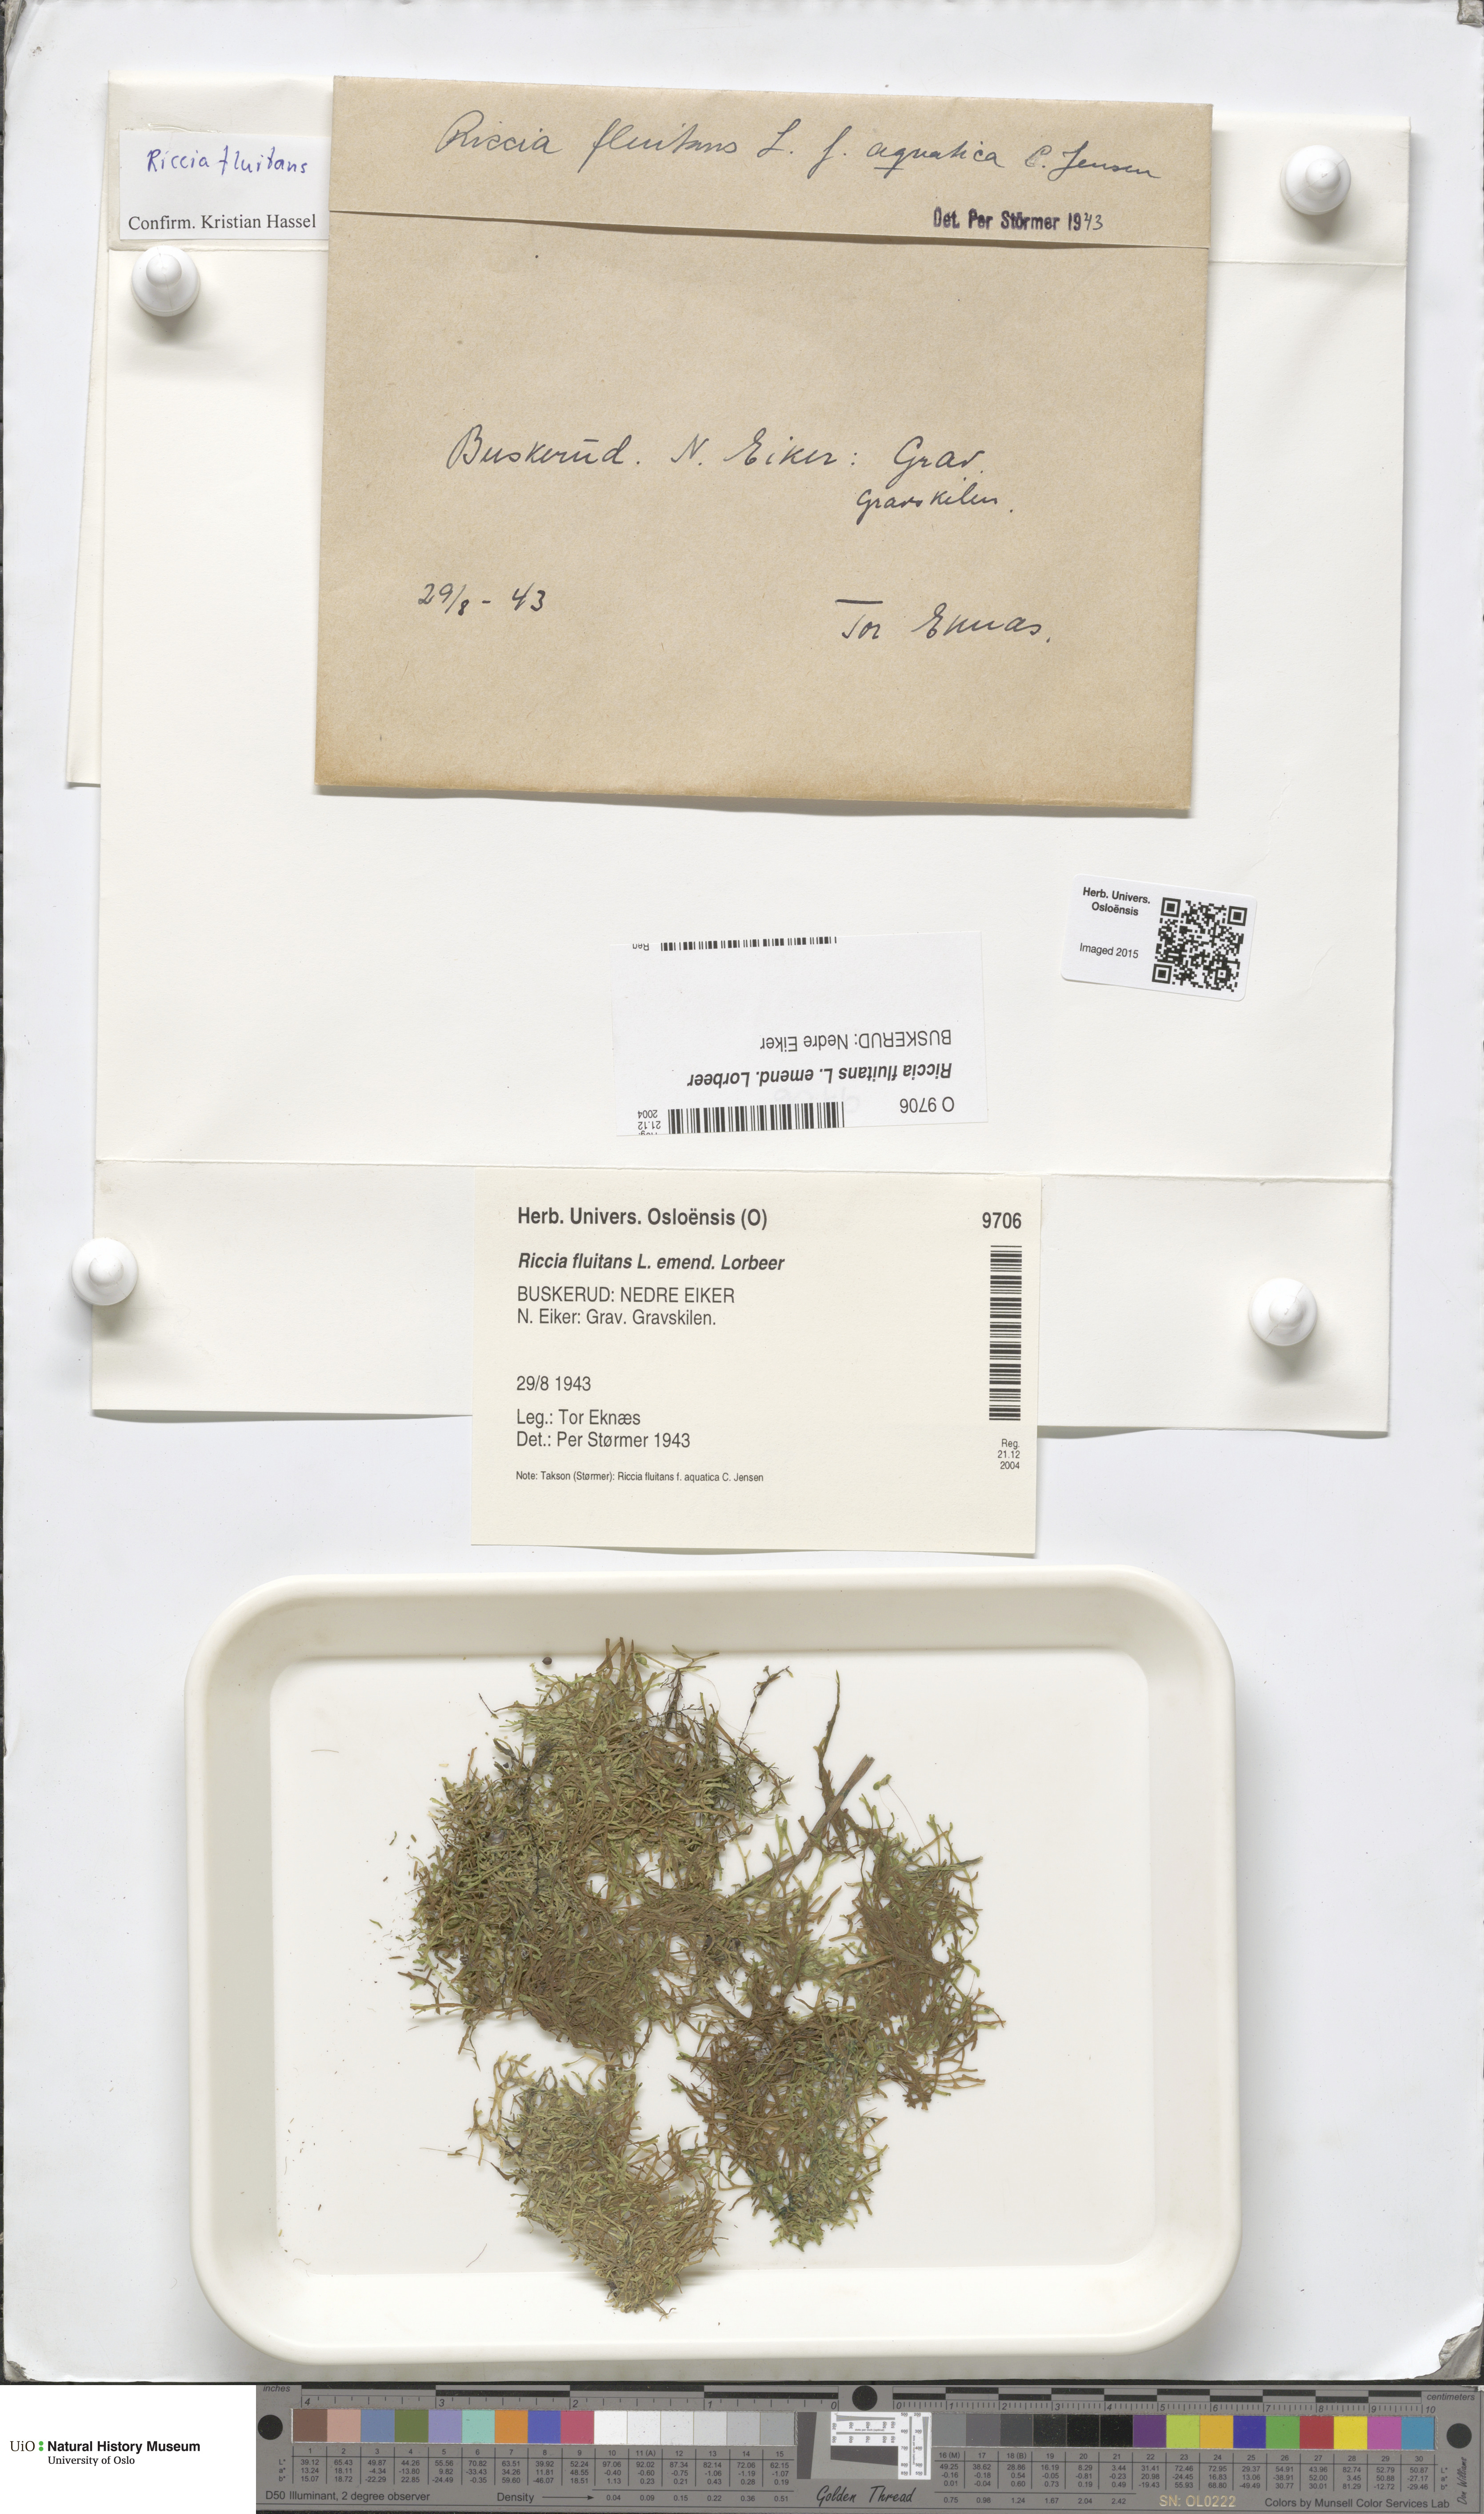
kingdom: Plantae
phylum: Marchantiophyta
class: Marchantiopsida
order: Marchantiales
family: Ricciaceae
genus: Riccia
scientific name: Riccia fluitans
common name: Floating crystalwort
